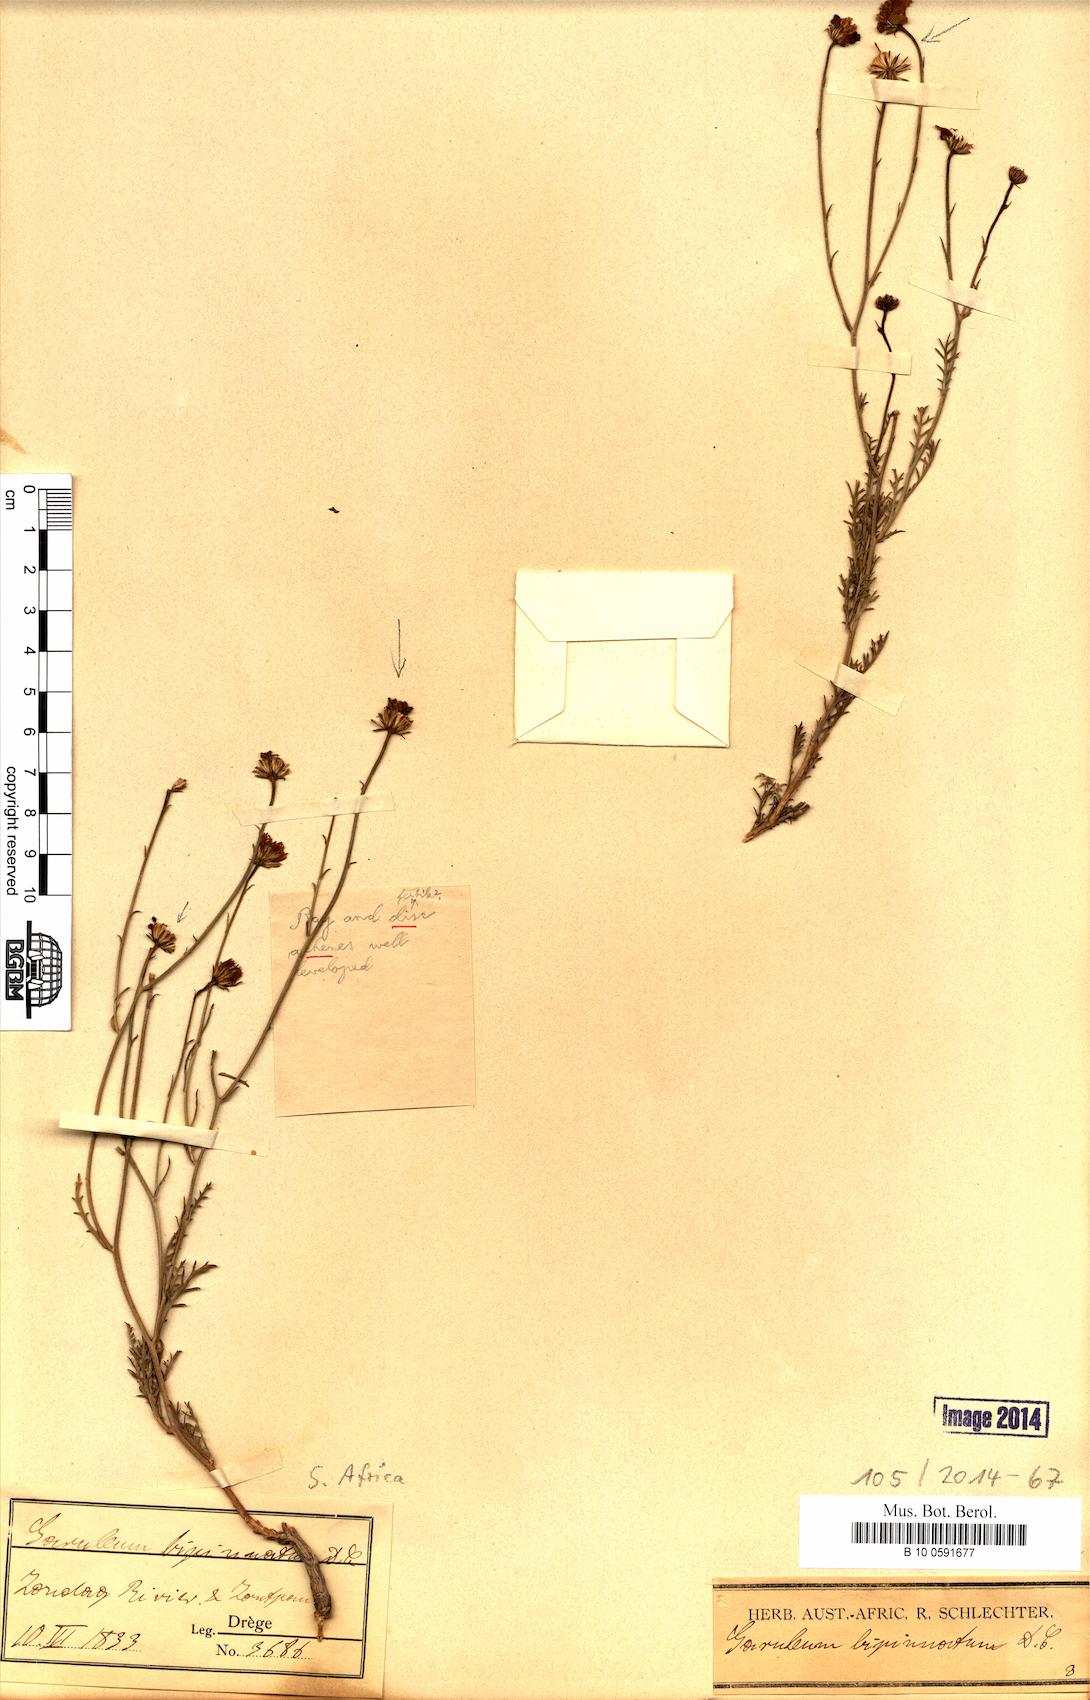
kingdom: Plantae
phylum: Tracheophyta
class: Magnoliopsida
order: Asterales
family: Asteraceae
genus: Garuleum
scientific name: Garuleum bipinnatum
